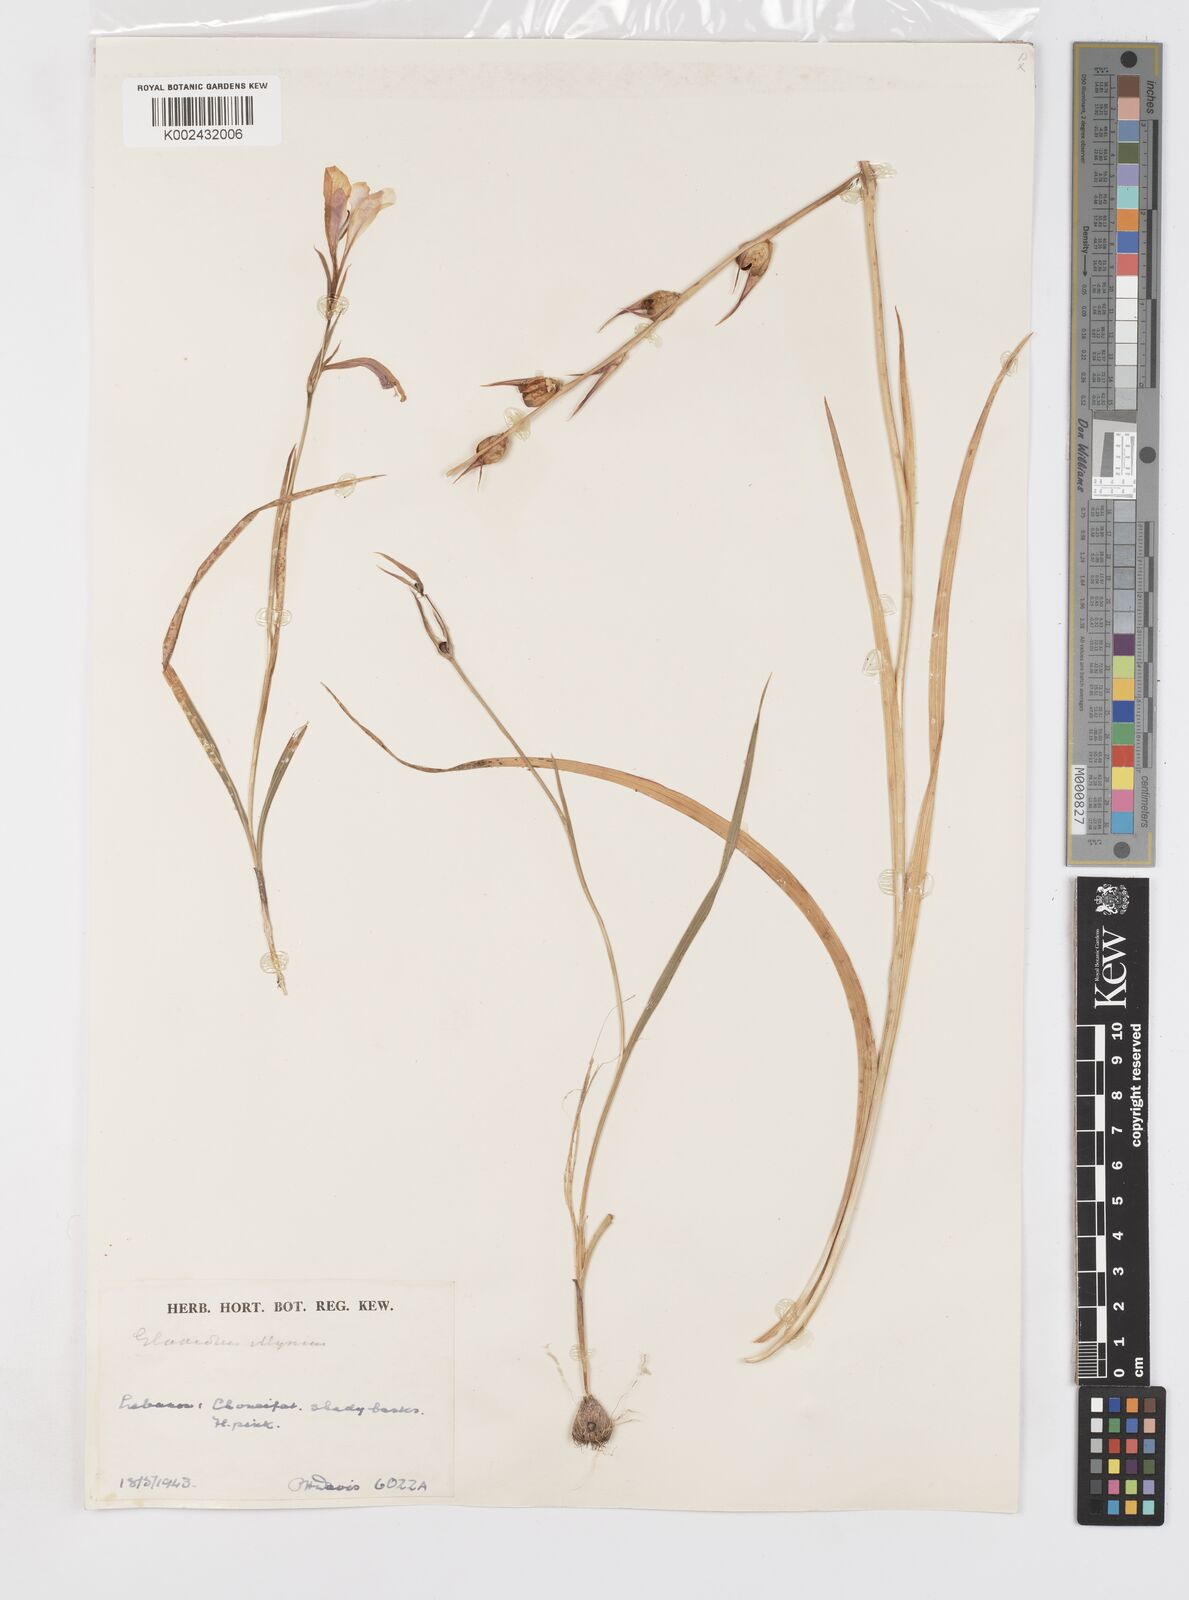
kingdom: Plantae
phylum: Tracheophyta
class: Liliopsida
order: Asparagales
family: Iridaceae
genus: Gladiolus
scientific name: Gladiolus illyricus
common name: Wild gladiolus
